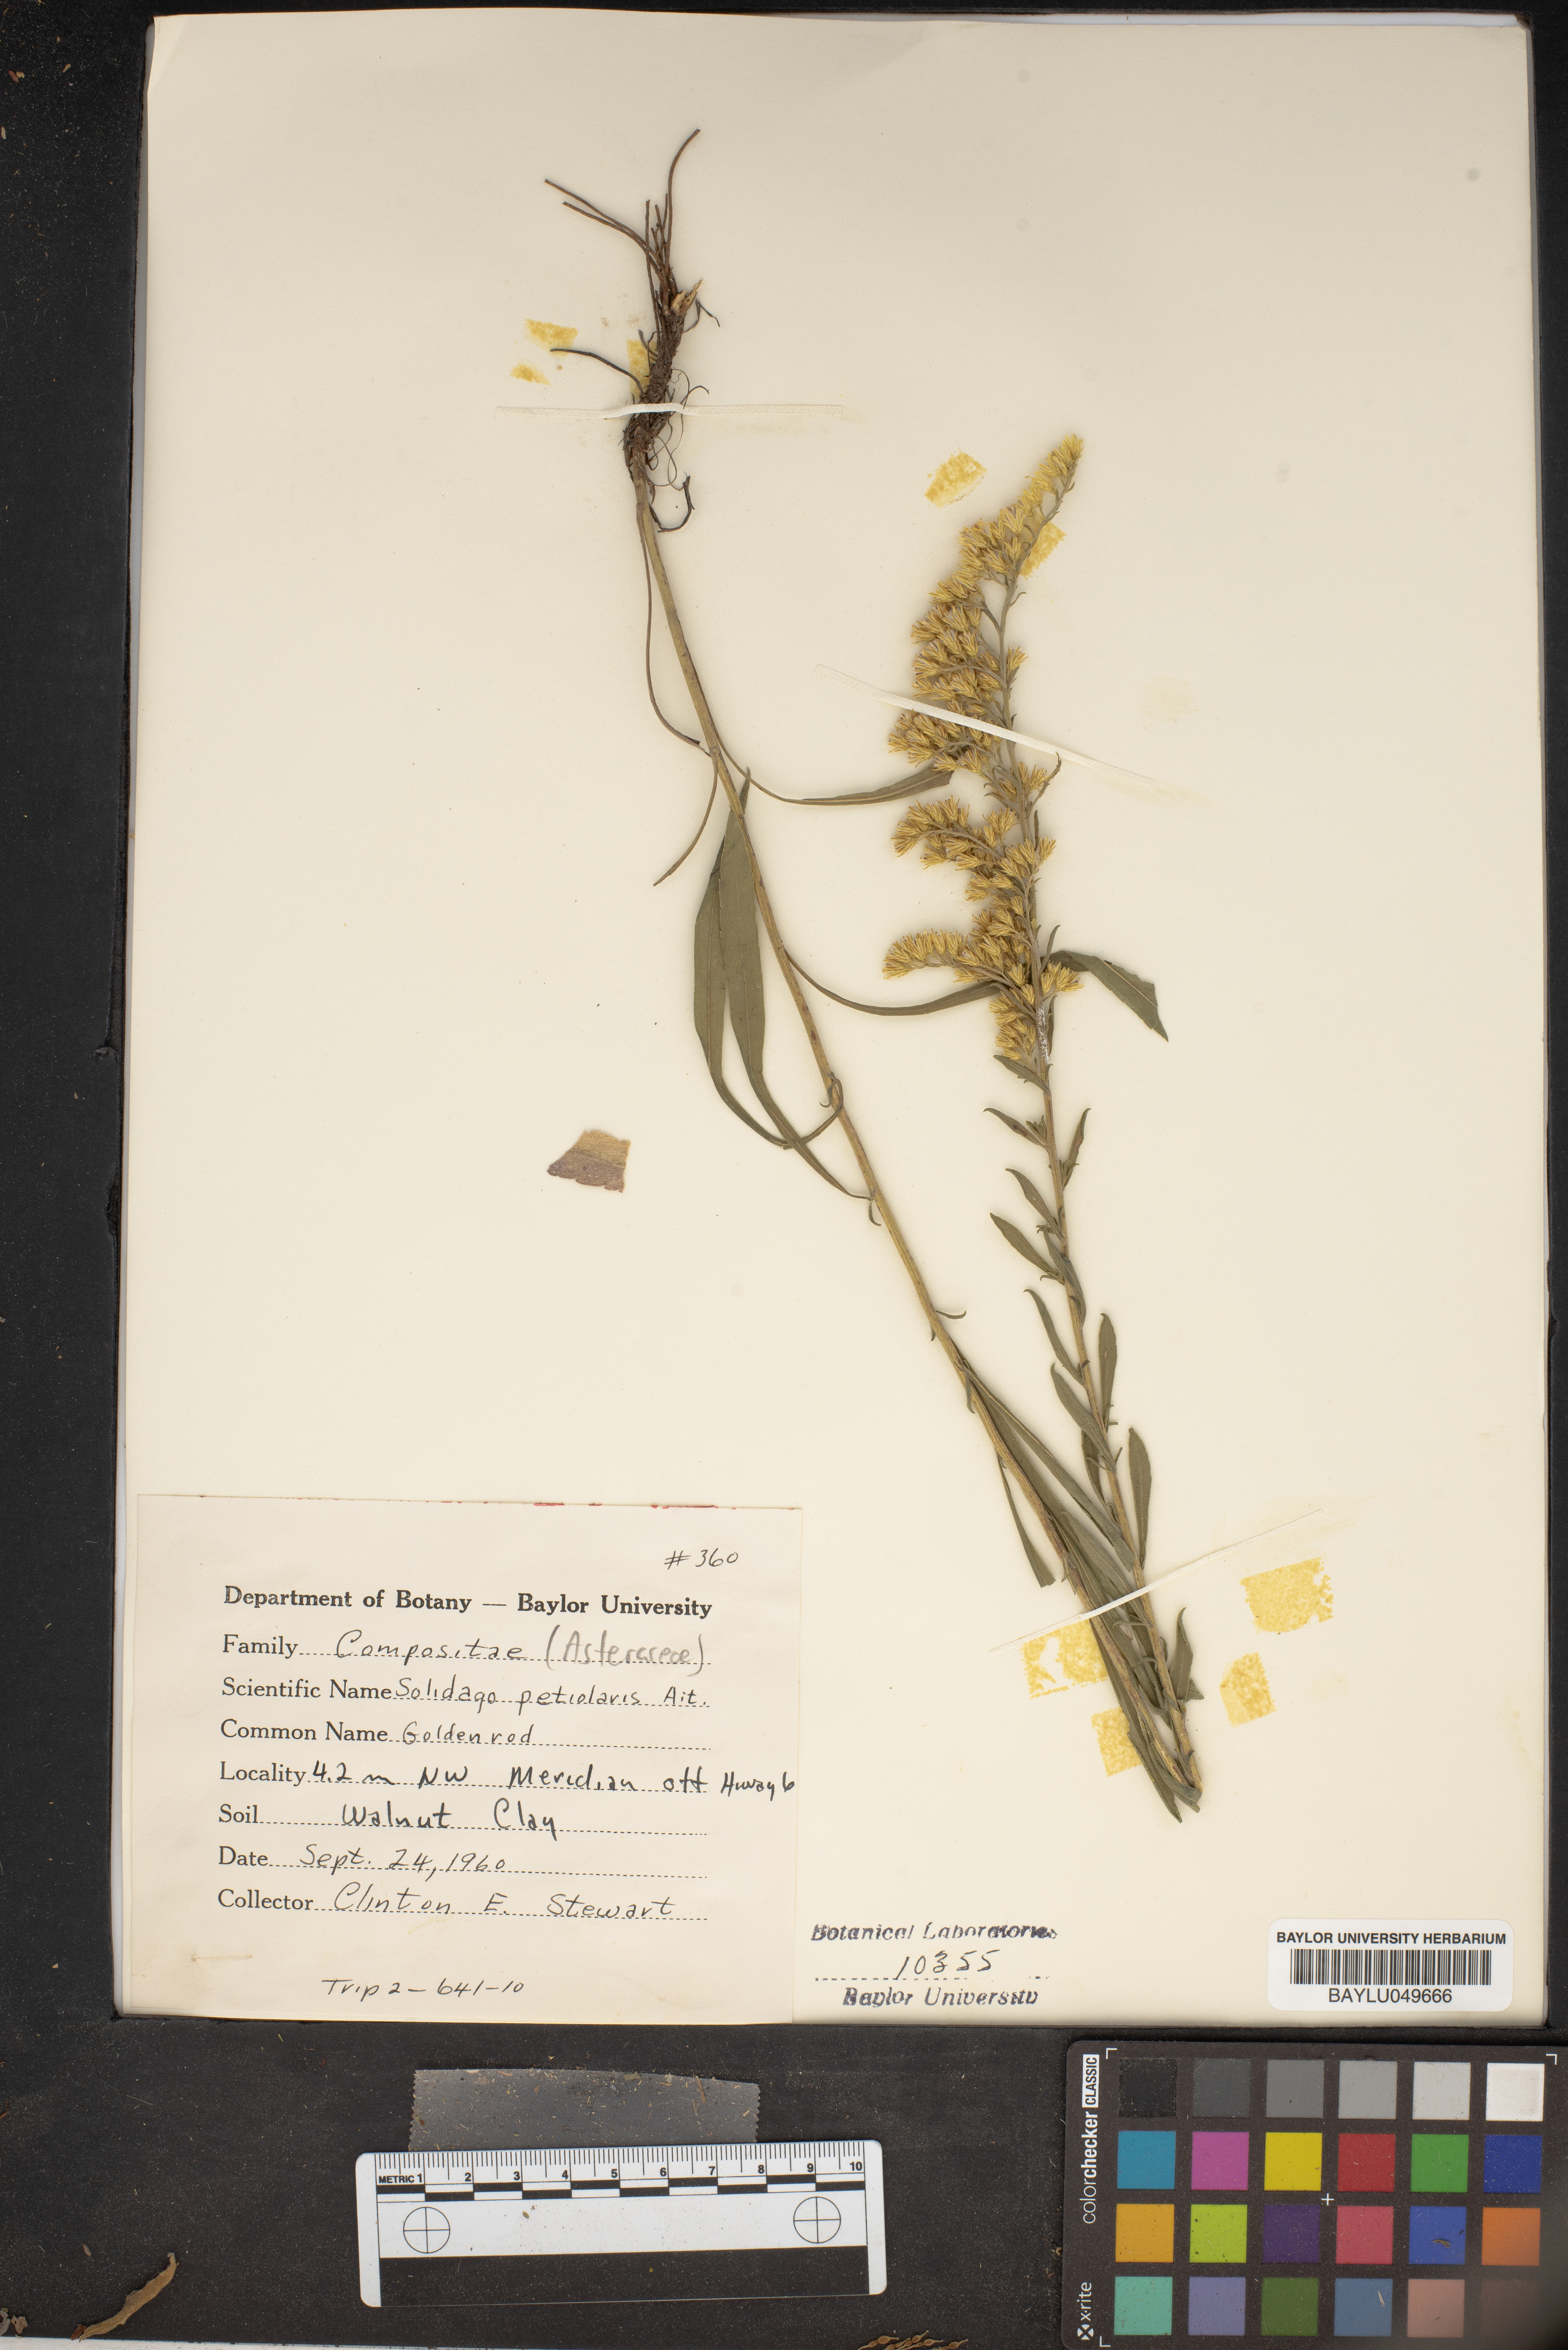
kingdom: Plantae
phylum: Tracheophyta
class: Magnoliopsida
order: Asterales
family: Asteraceae
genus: Solidago
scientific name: Solidago petiolaris
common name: Downy ragged goldenrod
